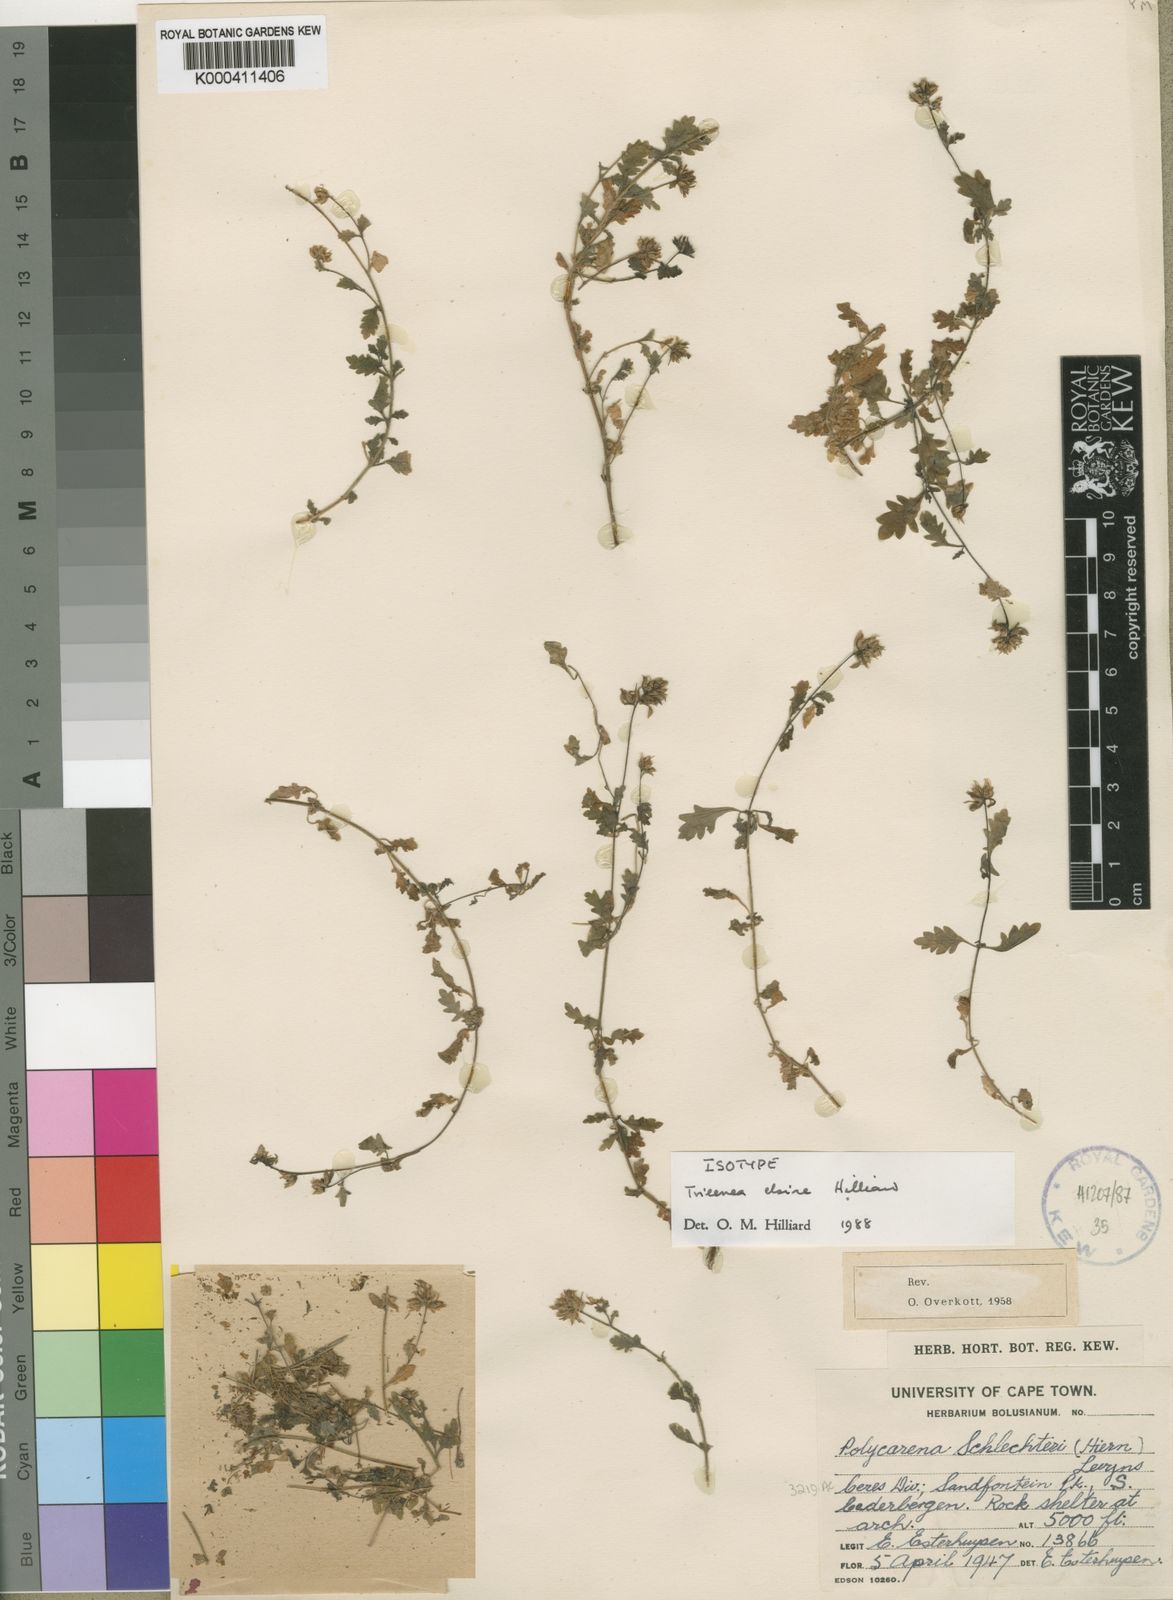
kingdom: Plantae
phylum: Tracheophyta
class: Magnoliopsida
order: Lamiales
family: Scrophulariaceae
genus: Trieenea
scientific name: Trieenea elsiae
